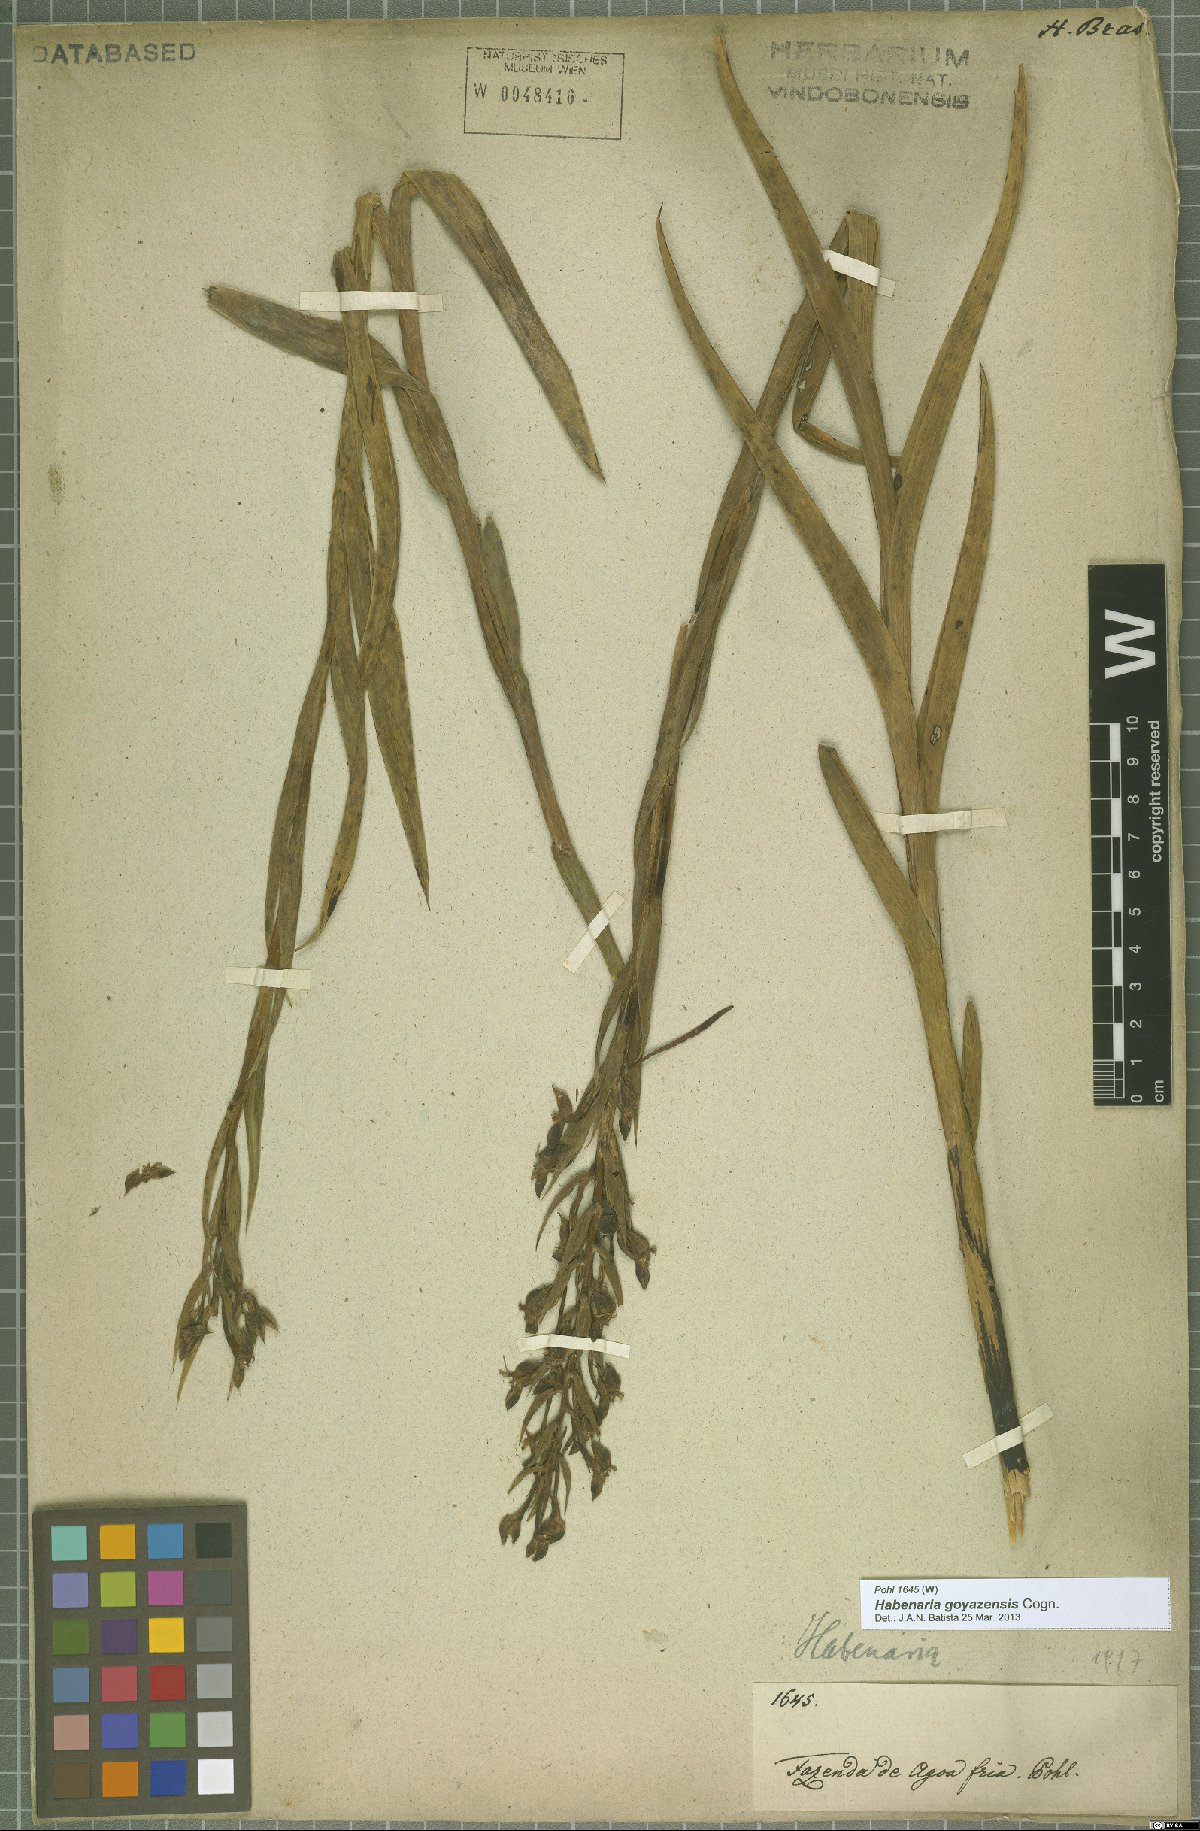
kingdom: Plantae
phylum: Tracheophyta
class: Liliopsida
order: Asparagales
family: Orchidaceae
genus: Habenaria
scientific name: Habenaria goyazensis
